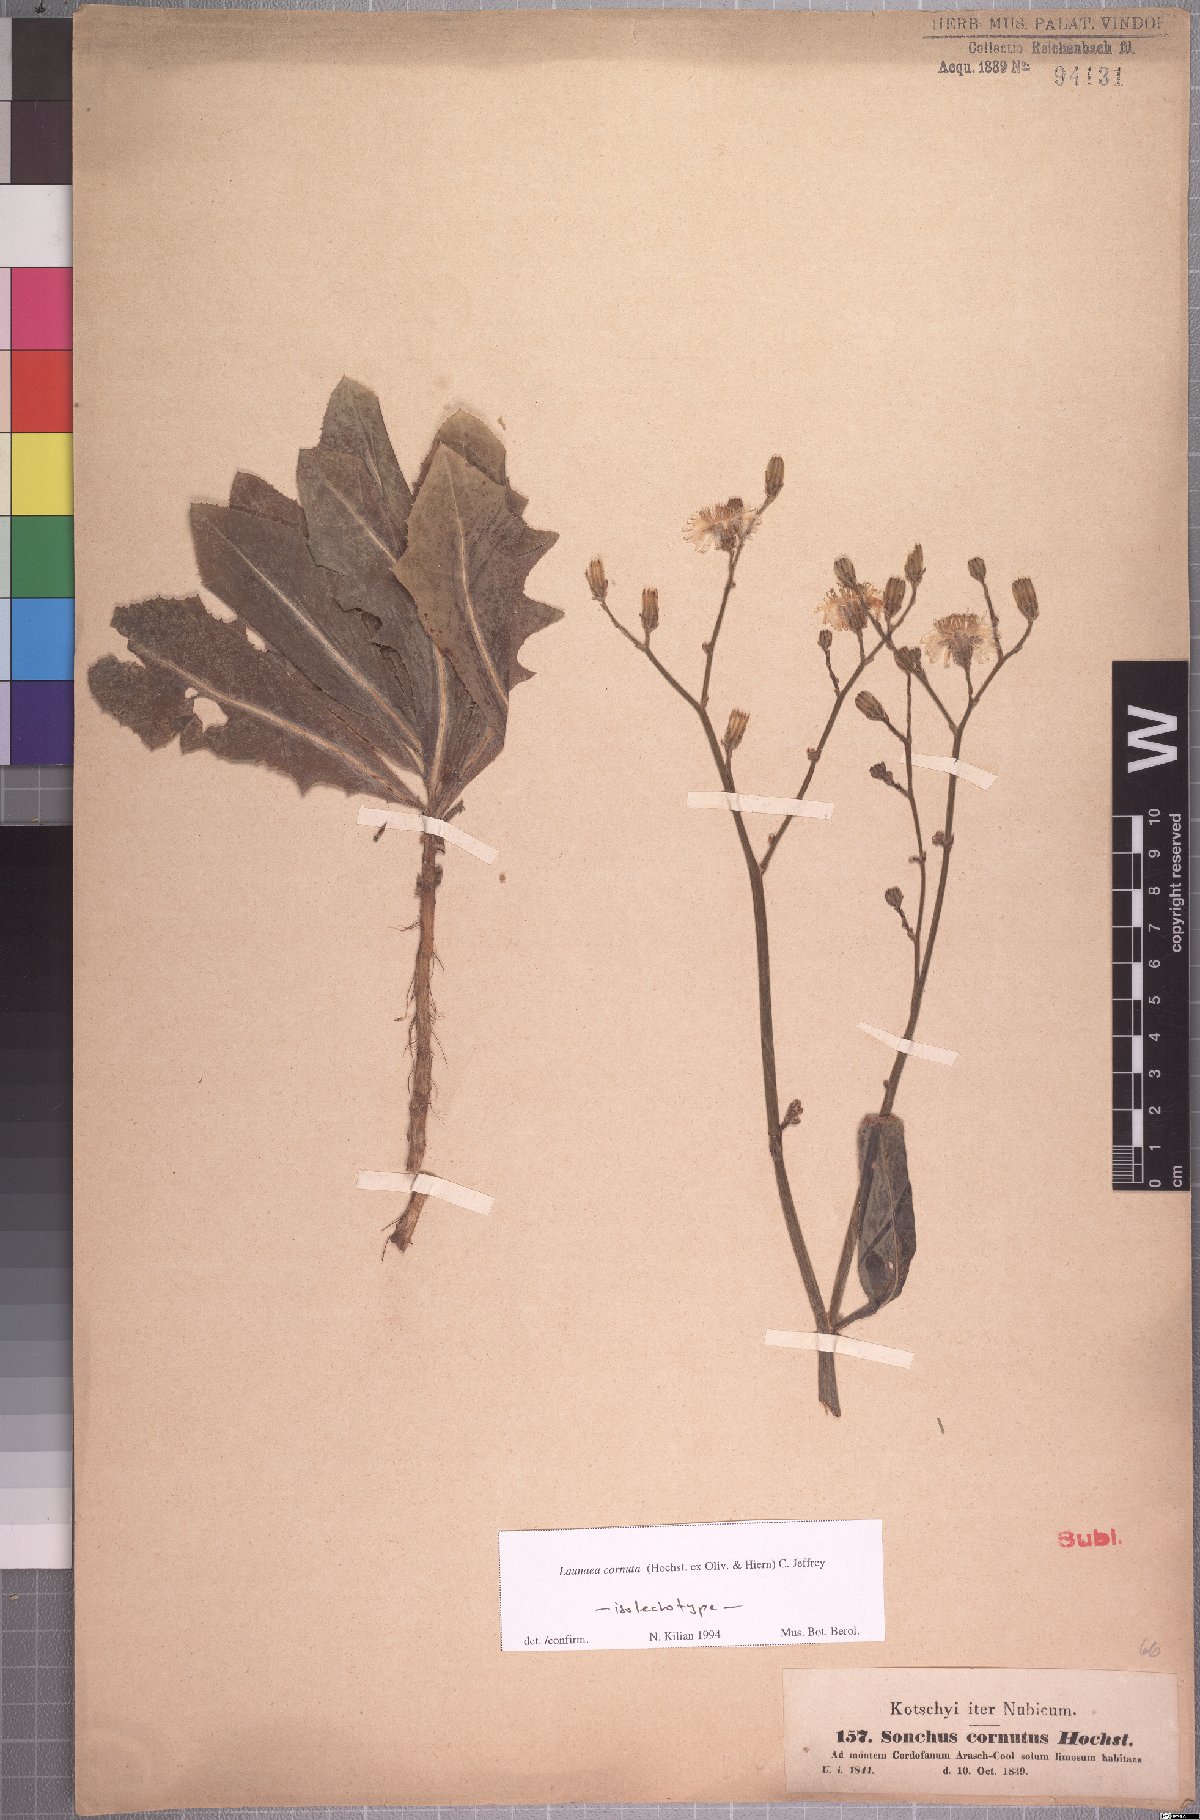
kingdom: Plantae
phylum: Tracheophyta
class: Magnoliopsida
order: Asterales
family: Asteraceae
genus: Launaea
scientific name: Launaea cornuta
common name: Bitter-lettuce
